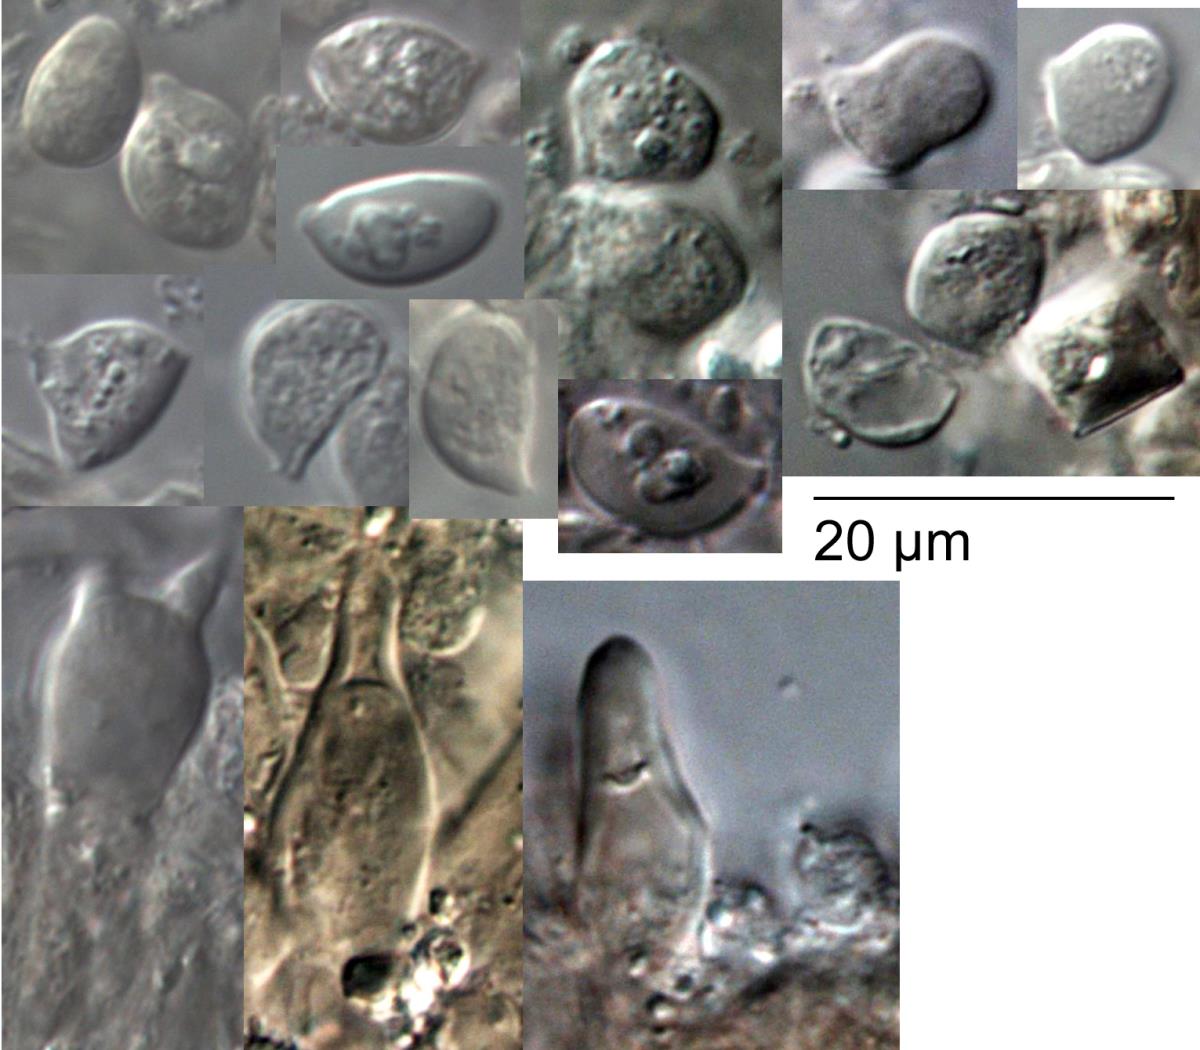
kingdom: Fungi
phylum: Basidiomycota
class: Agaricomycetes
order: Agaricales
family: Marasmiaceae
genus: Campanella
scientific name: Campanella candida
